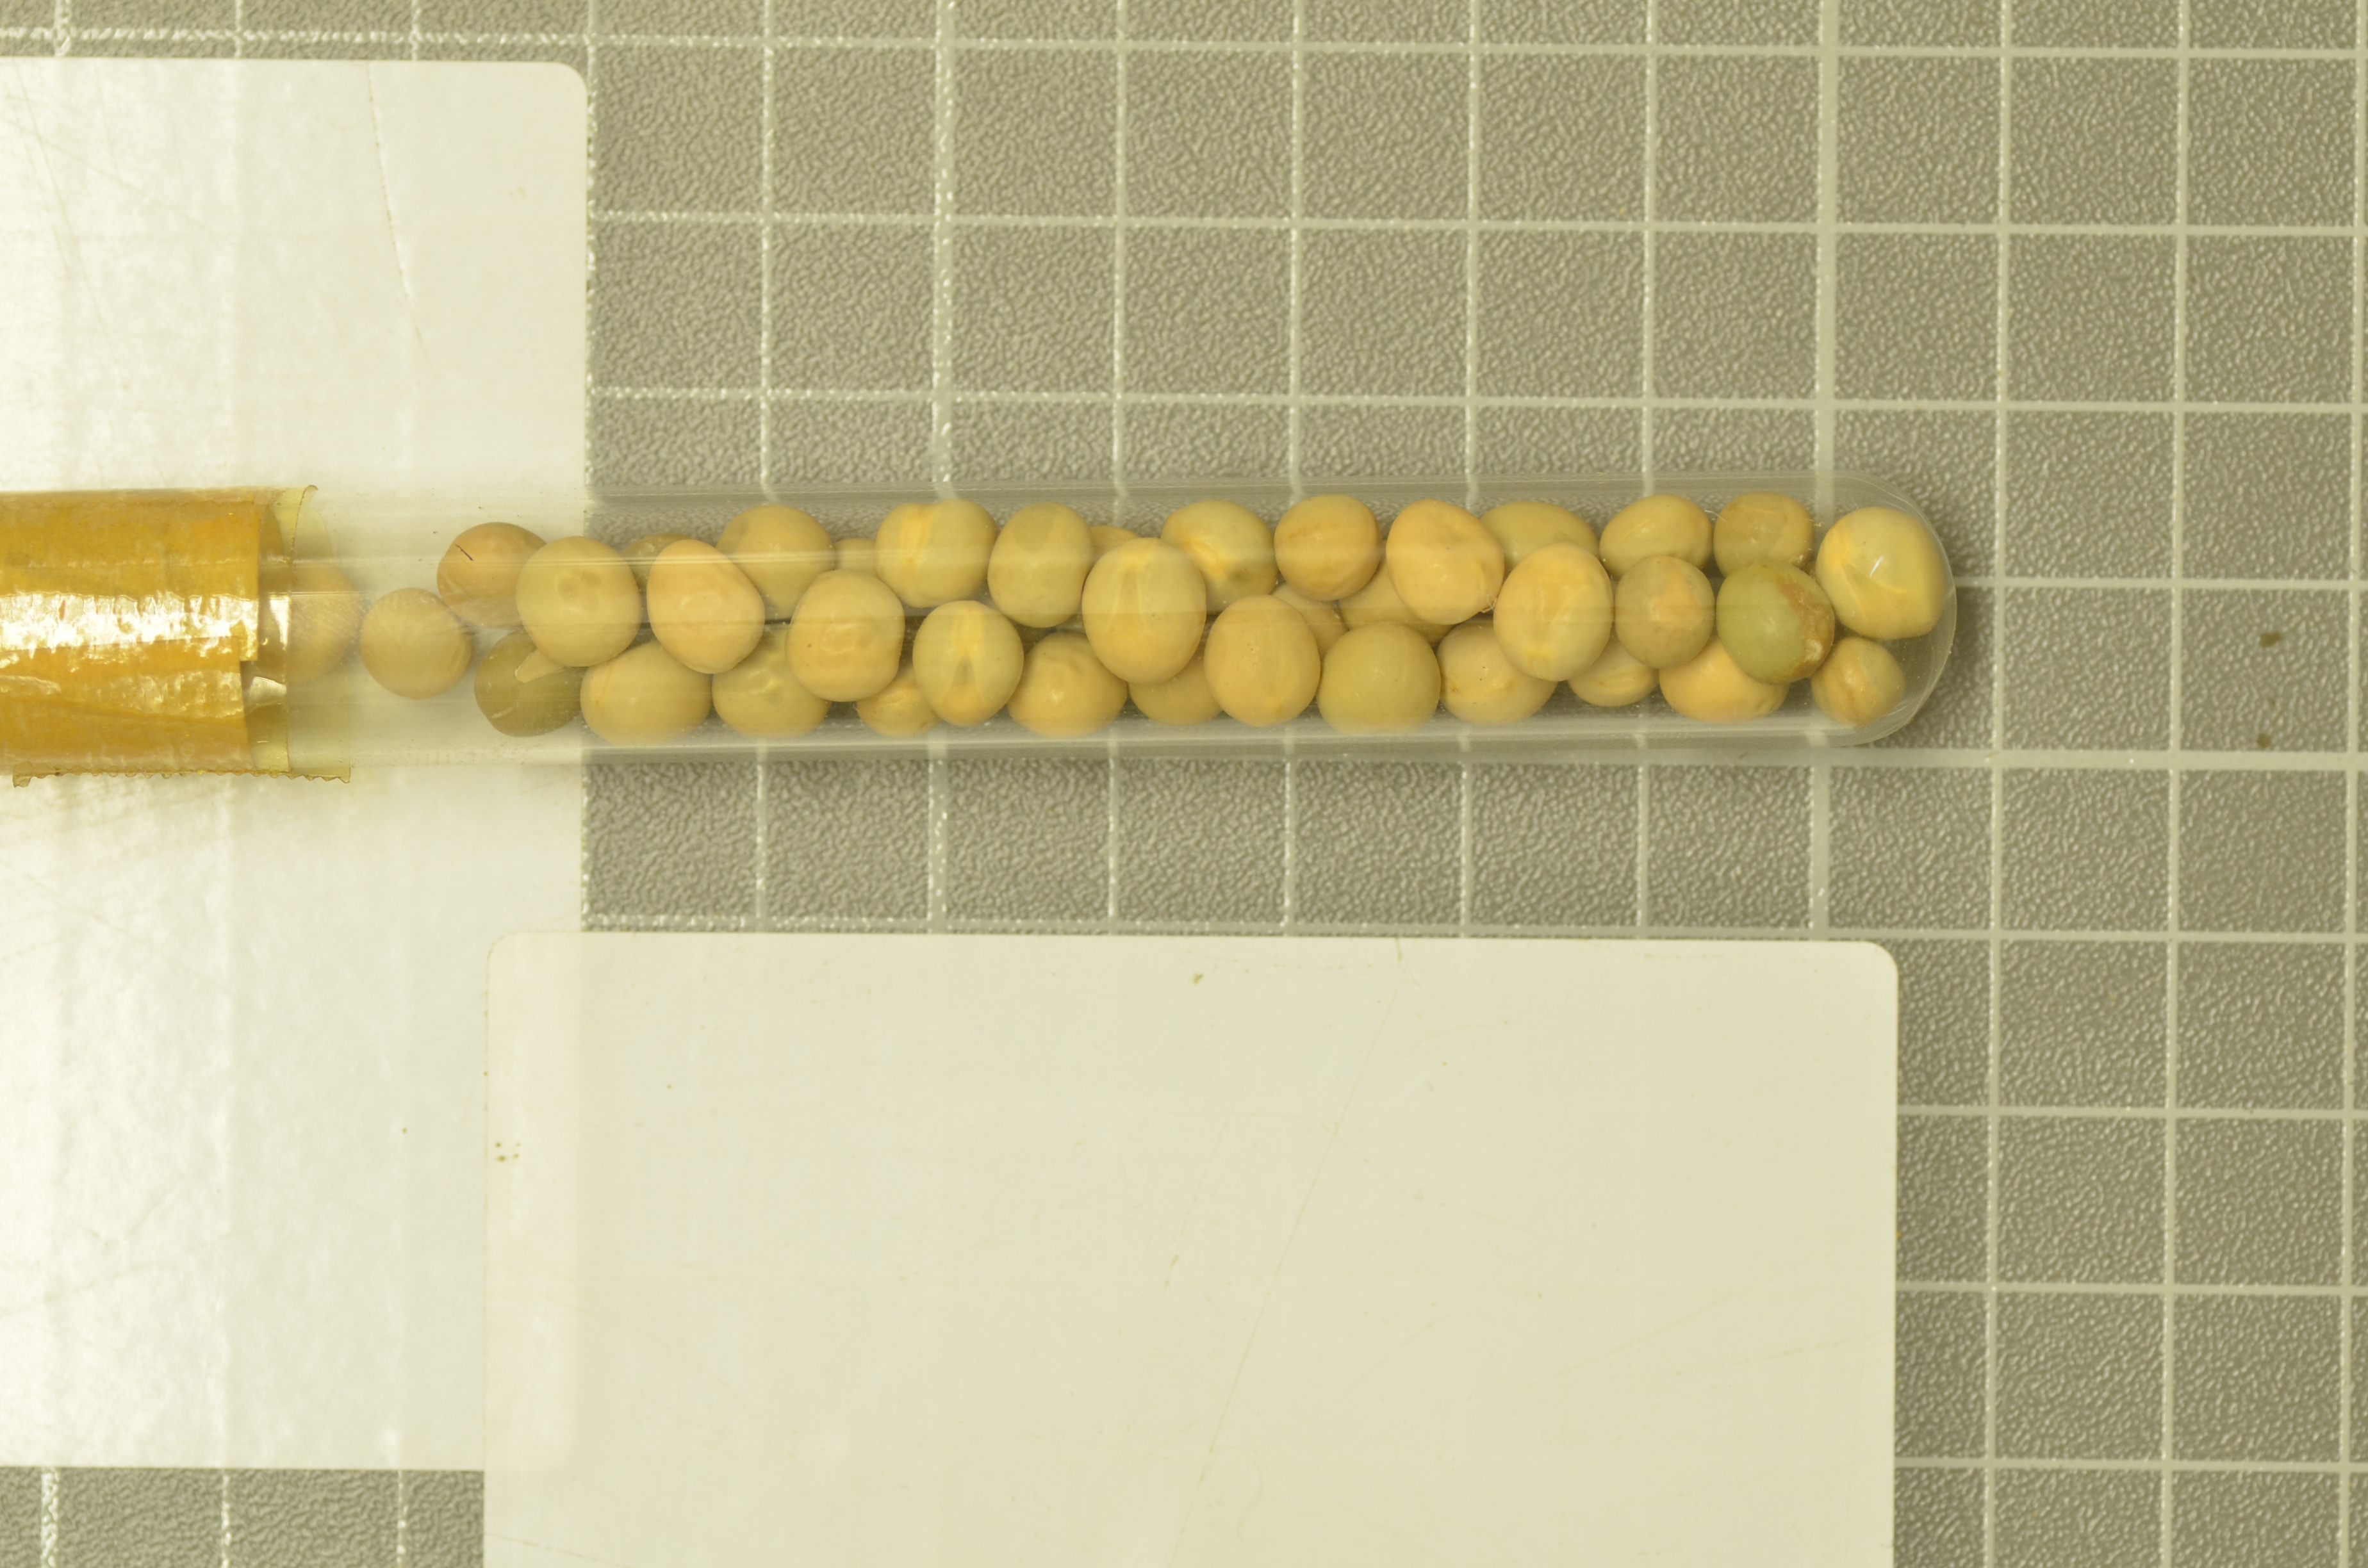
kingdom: Plantae
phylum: Tracheophyta
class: Magnoliopsida
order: Fabales
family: Fabaceae
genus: Lathyrus
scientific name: Lathyrus oleraceus
